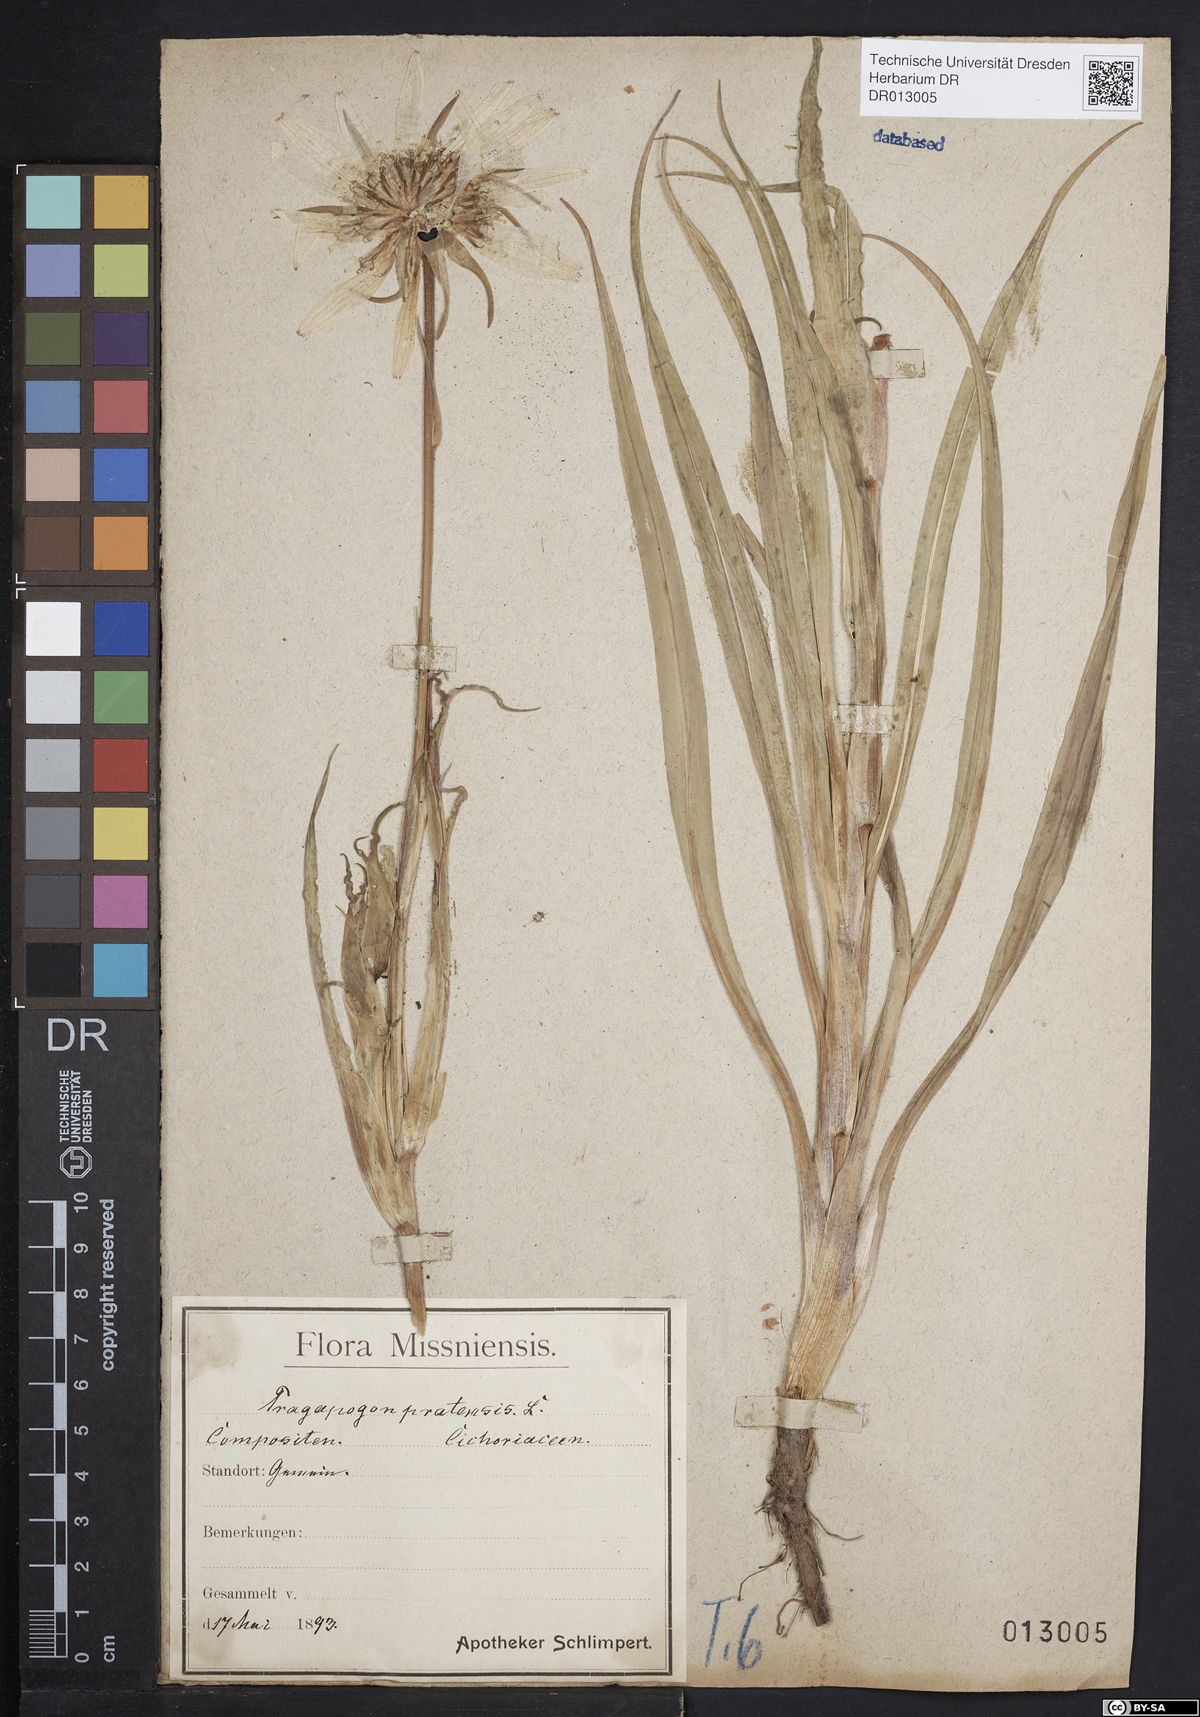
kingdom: Plantae
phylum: Tracheophyta
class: Magnoliopsida
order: Asterales
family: Asteraceae
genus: Tragopogon
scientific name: Tragopogon pratensis
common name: Goat's-beard
